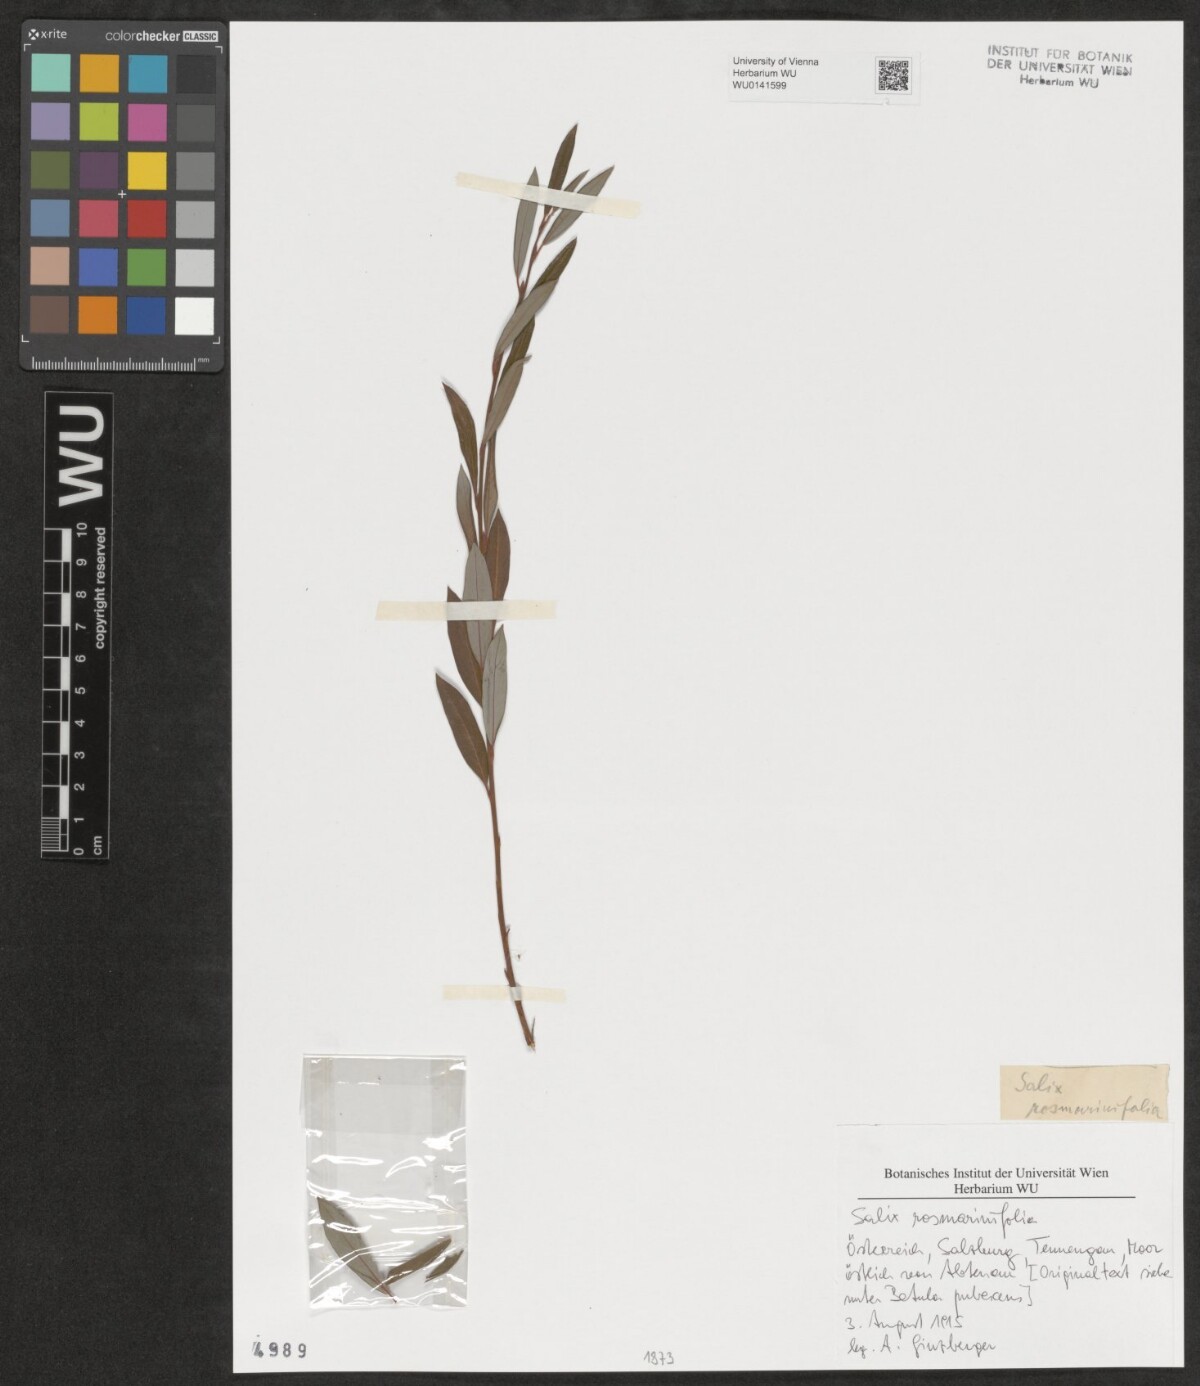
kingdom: Plantae
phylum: Tracheophyta
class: Magnoliopsida
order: Malpighiales
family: Salicaceae
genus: Salix
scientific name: Salix repens
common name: Creeping willow
